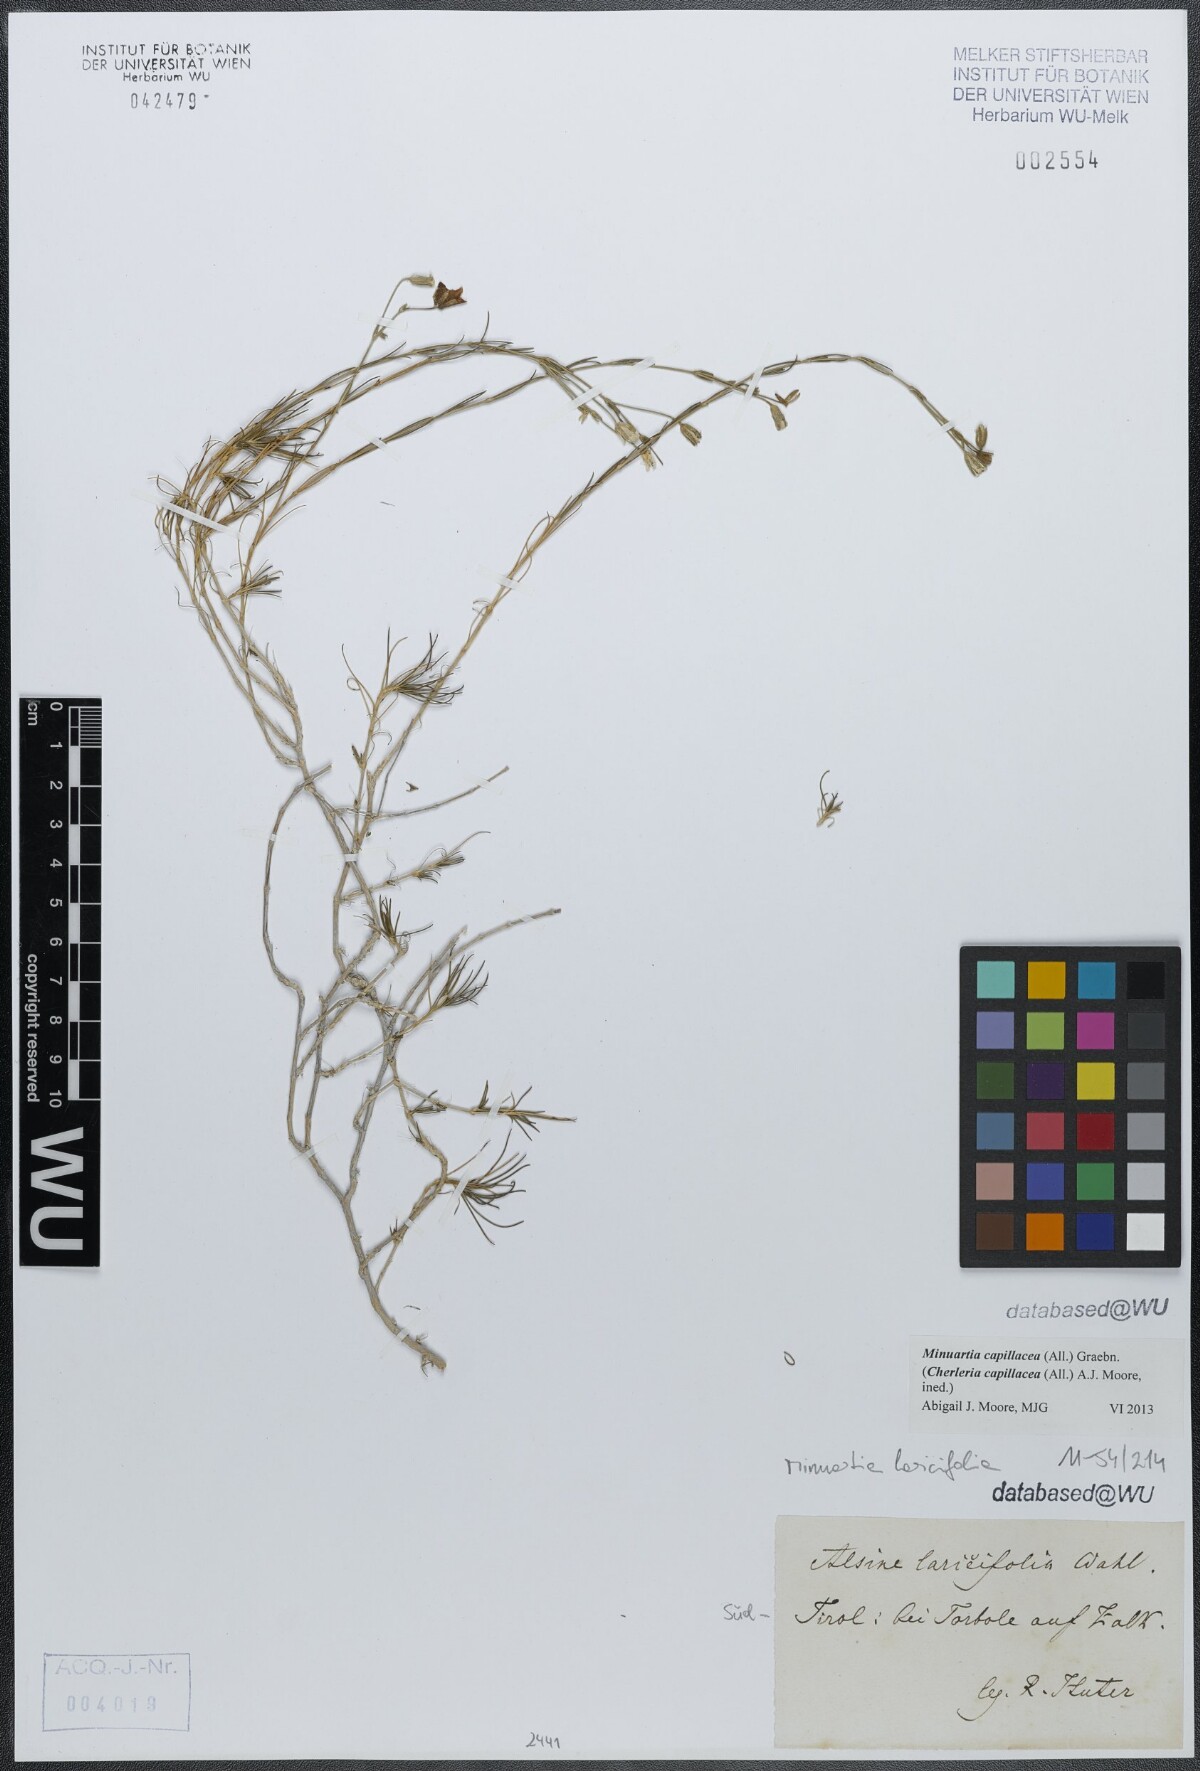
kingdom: Plantae
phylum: Tracheophyta
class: Magnoliopsida
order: Caryophyllales
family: Caryophyllaceae
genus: Cherleria
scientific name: Cherleria capillacea
